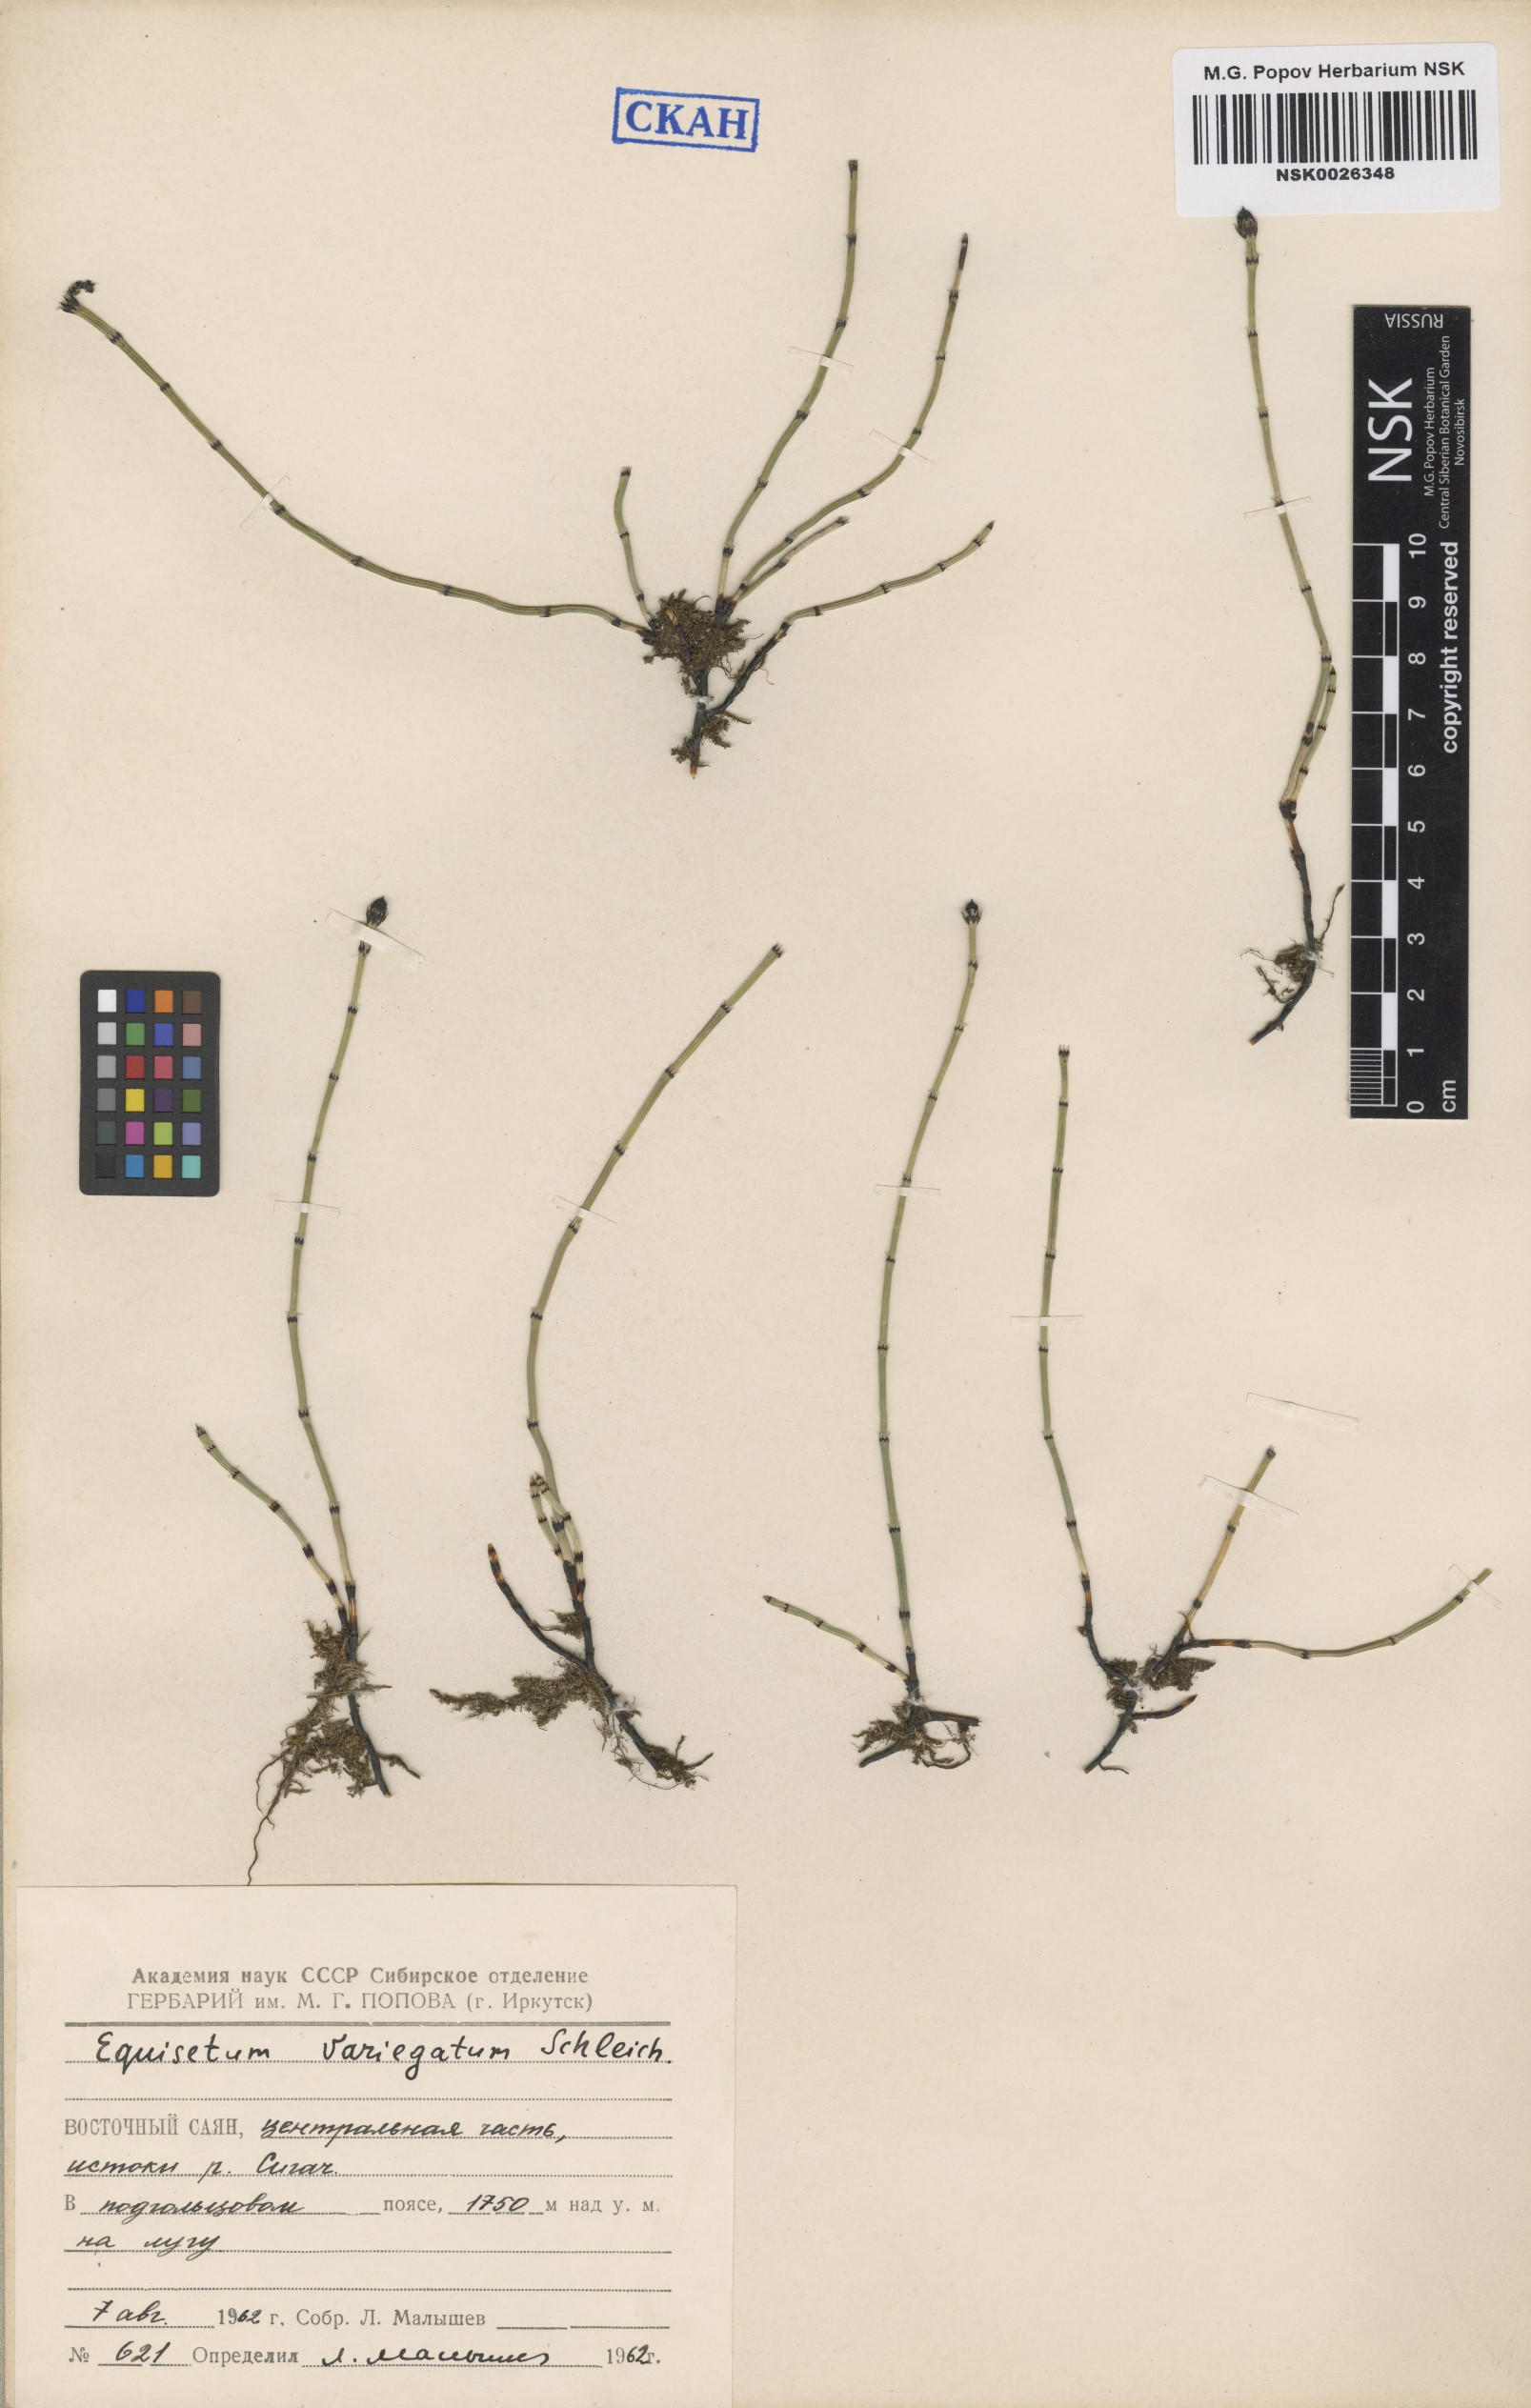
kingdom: Plantae
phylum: Tracheophyta
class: Polypodiopsida
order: Equisetales
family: Equisetaceae
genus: Equisetum
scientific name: Equisetum variegatum
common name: Variegated horsetail
